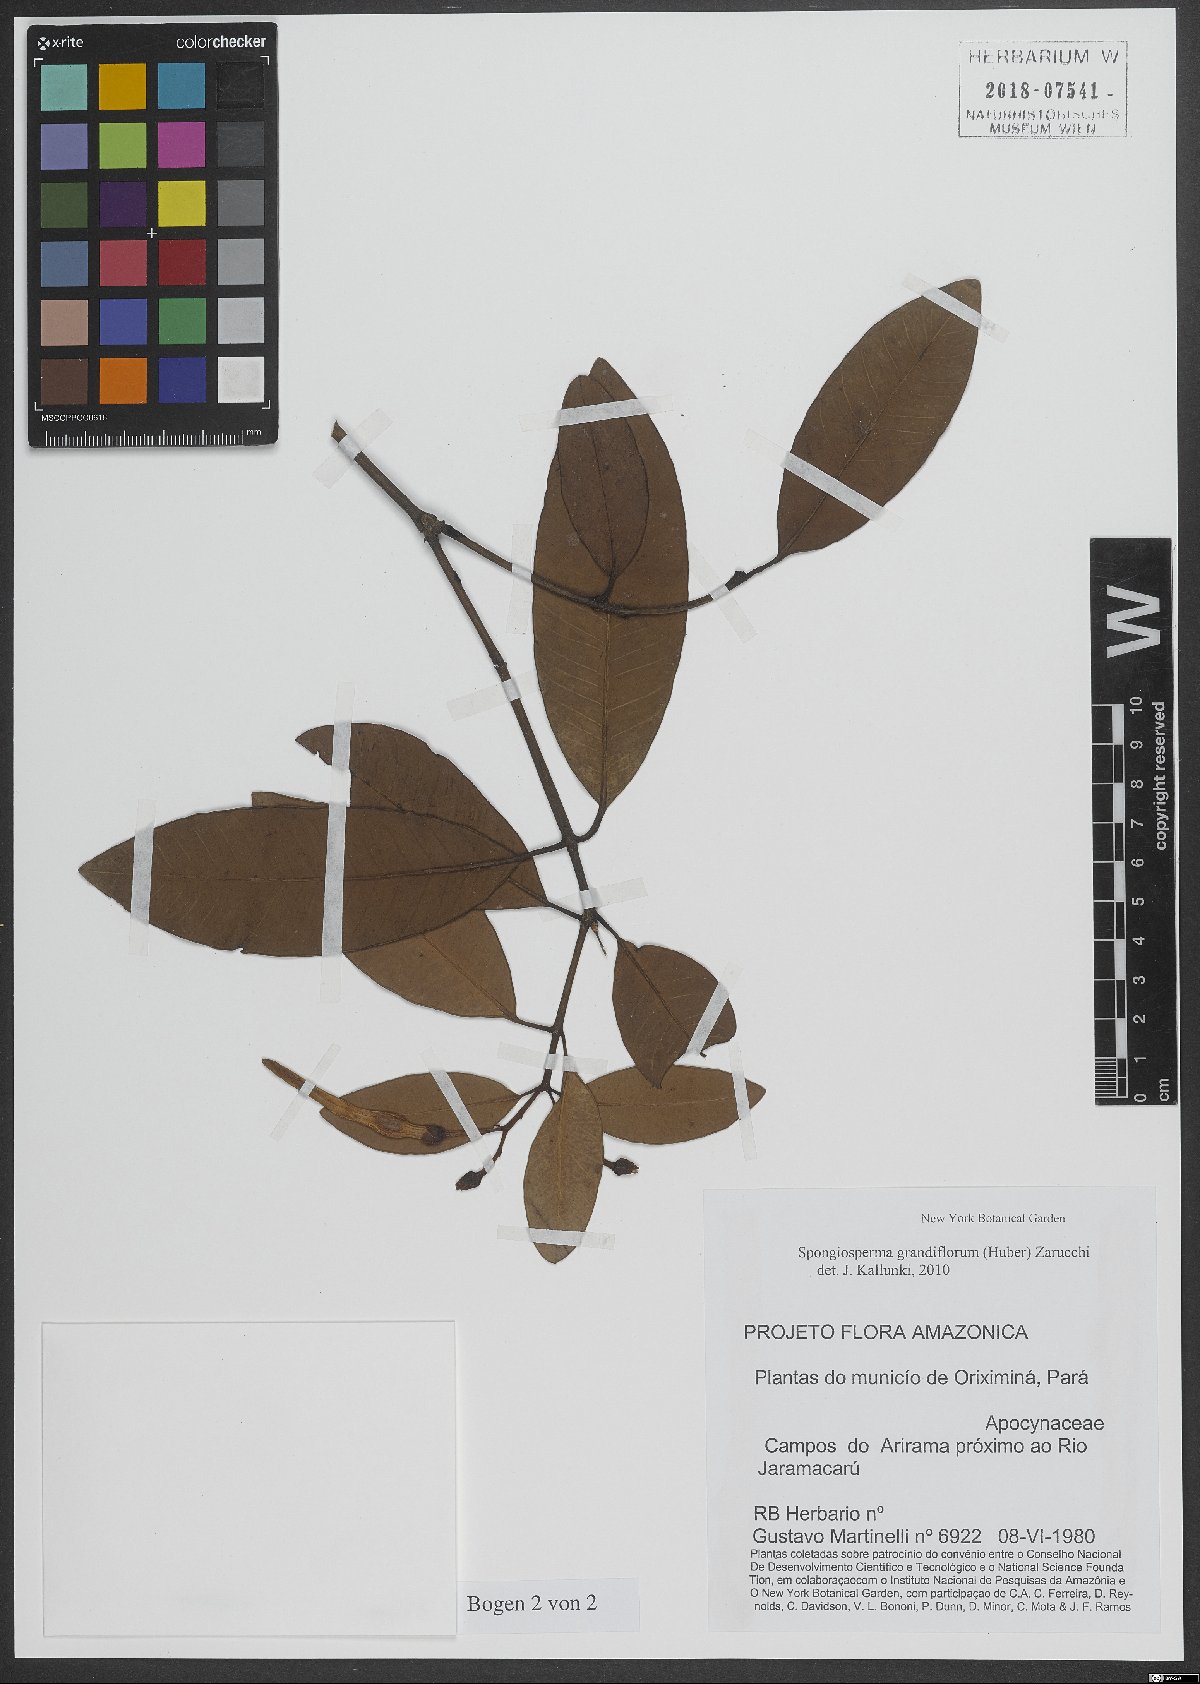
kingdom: Plantae
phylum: Tracheophyta
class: Magnoliopsida
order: Gentianales
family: Apocynaceae
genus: Spongiosperma
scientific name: Spongiosperma grandiflorum
